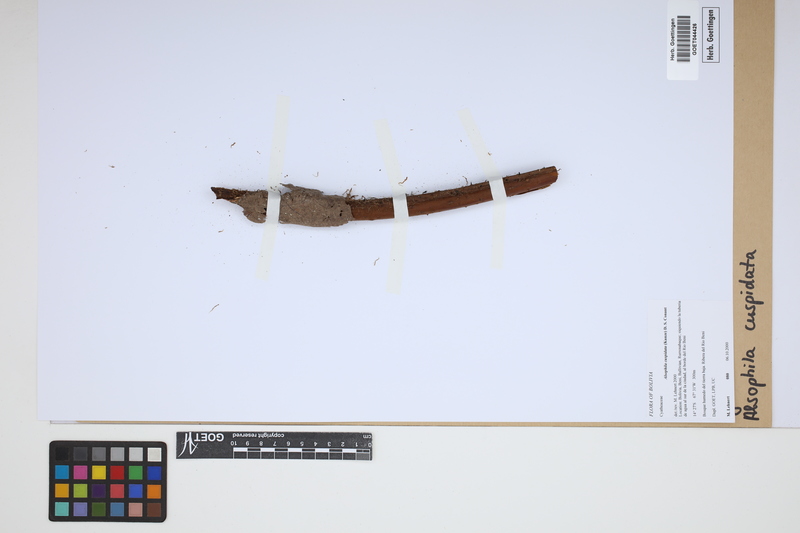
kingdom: Plantae
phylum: Tracheophyta
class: Polypodiopsida
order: Cyatheales
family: Cyatheaceae
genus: Alsophila
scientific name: Alsophila cuspidata
